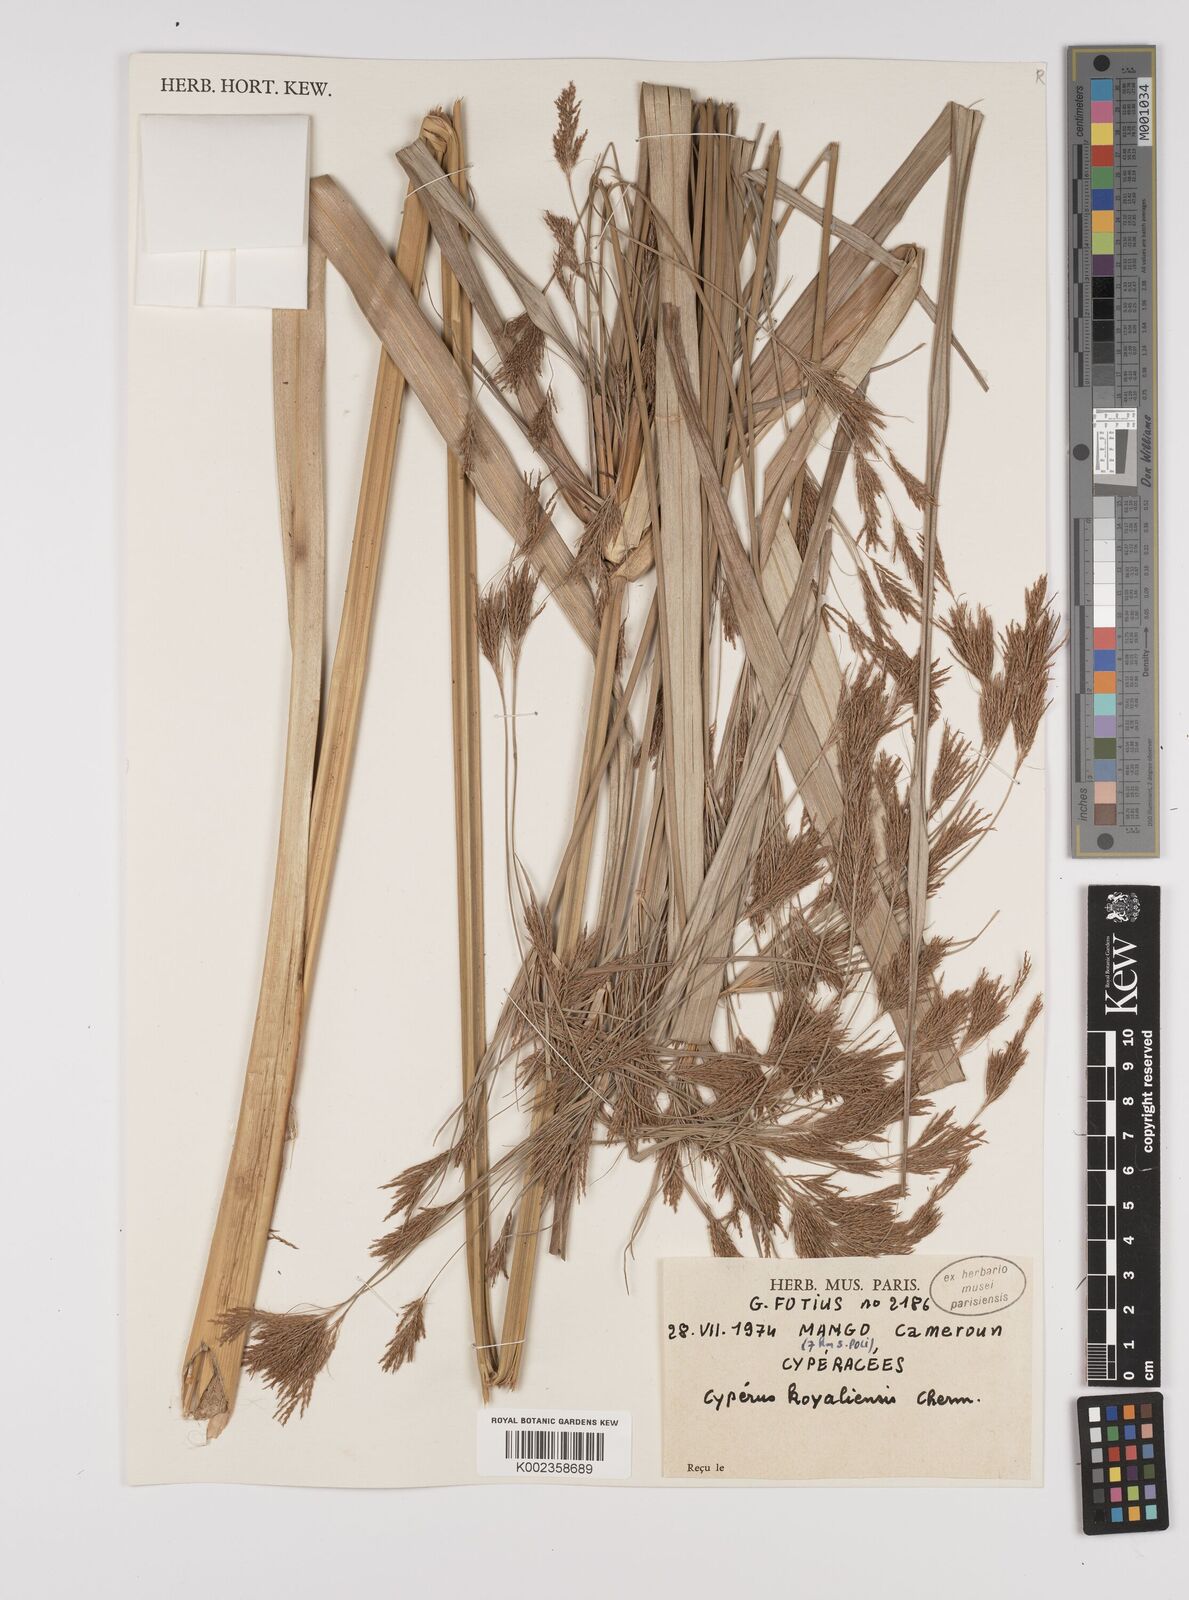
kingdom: Plantae
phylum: Tracheophyta
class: Liliopsida
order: Poales
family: Cyperaceae
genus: Cyperus
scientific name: Cyperus koyaliensis
